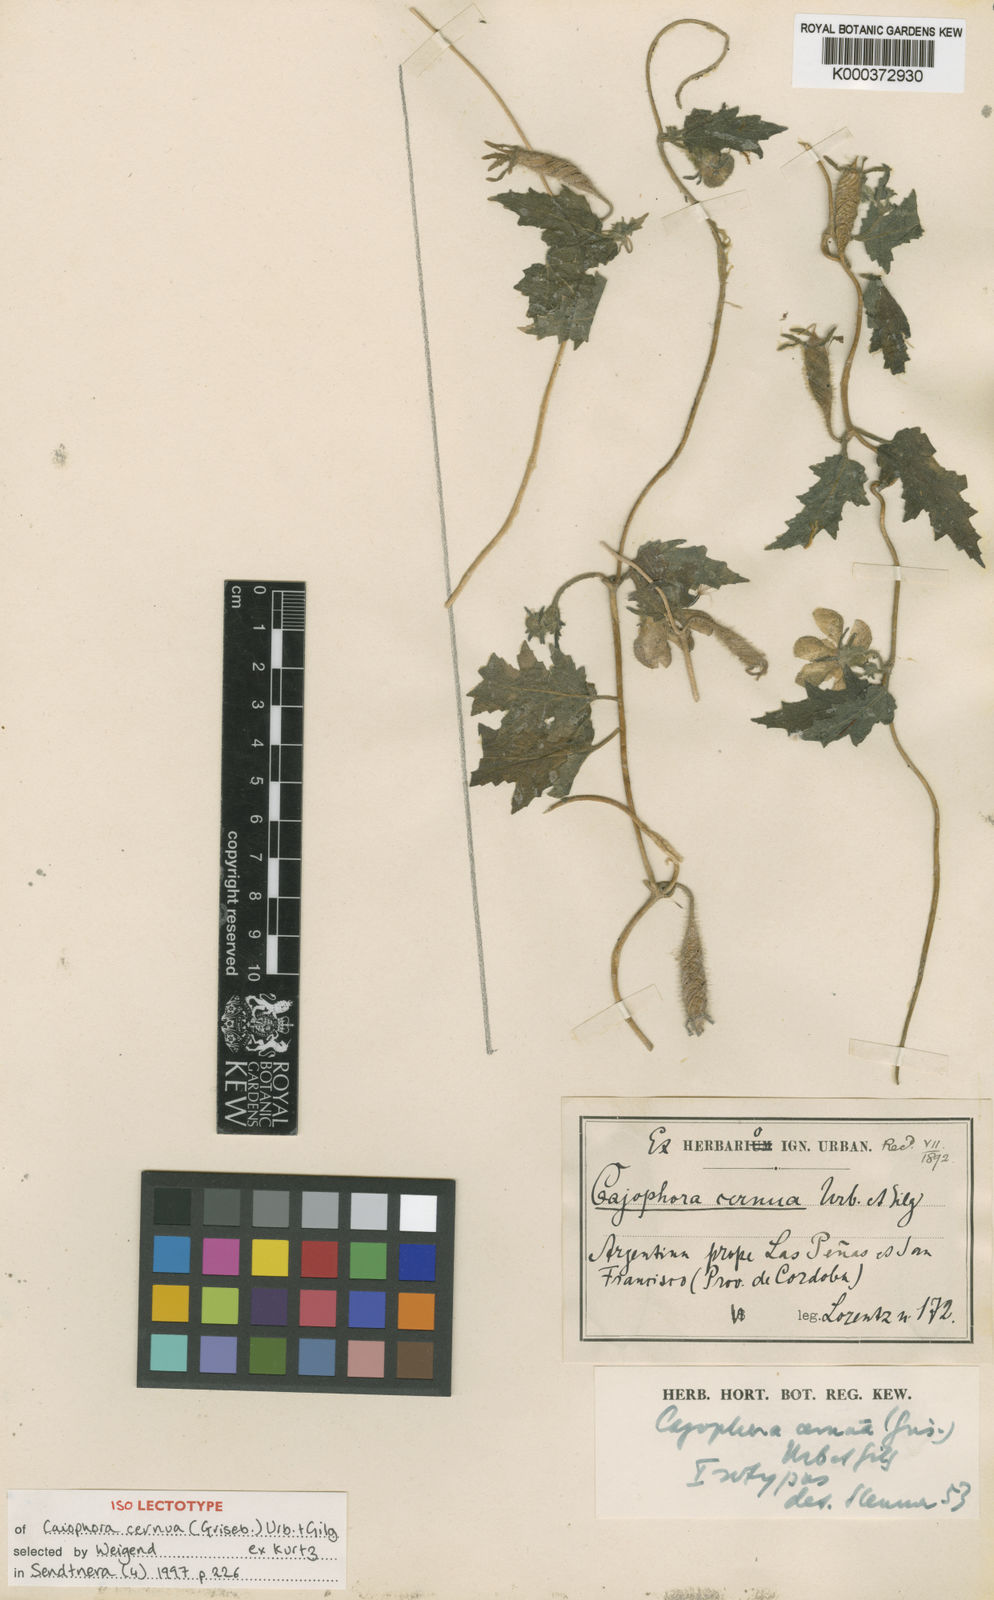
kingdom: Plantae
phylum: Tracheophyta
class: Magnoliopsida
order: Cornales
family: Loasaceae
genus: Caiophora
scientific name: Caiophora cernua
